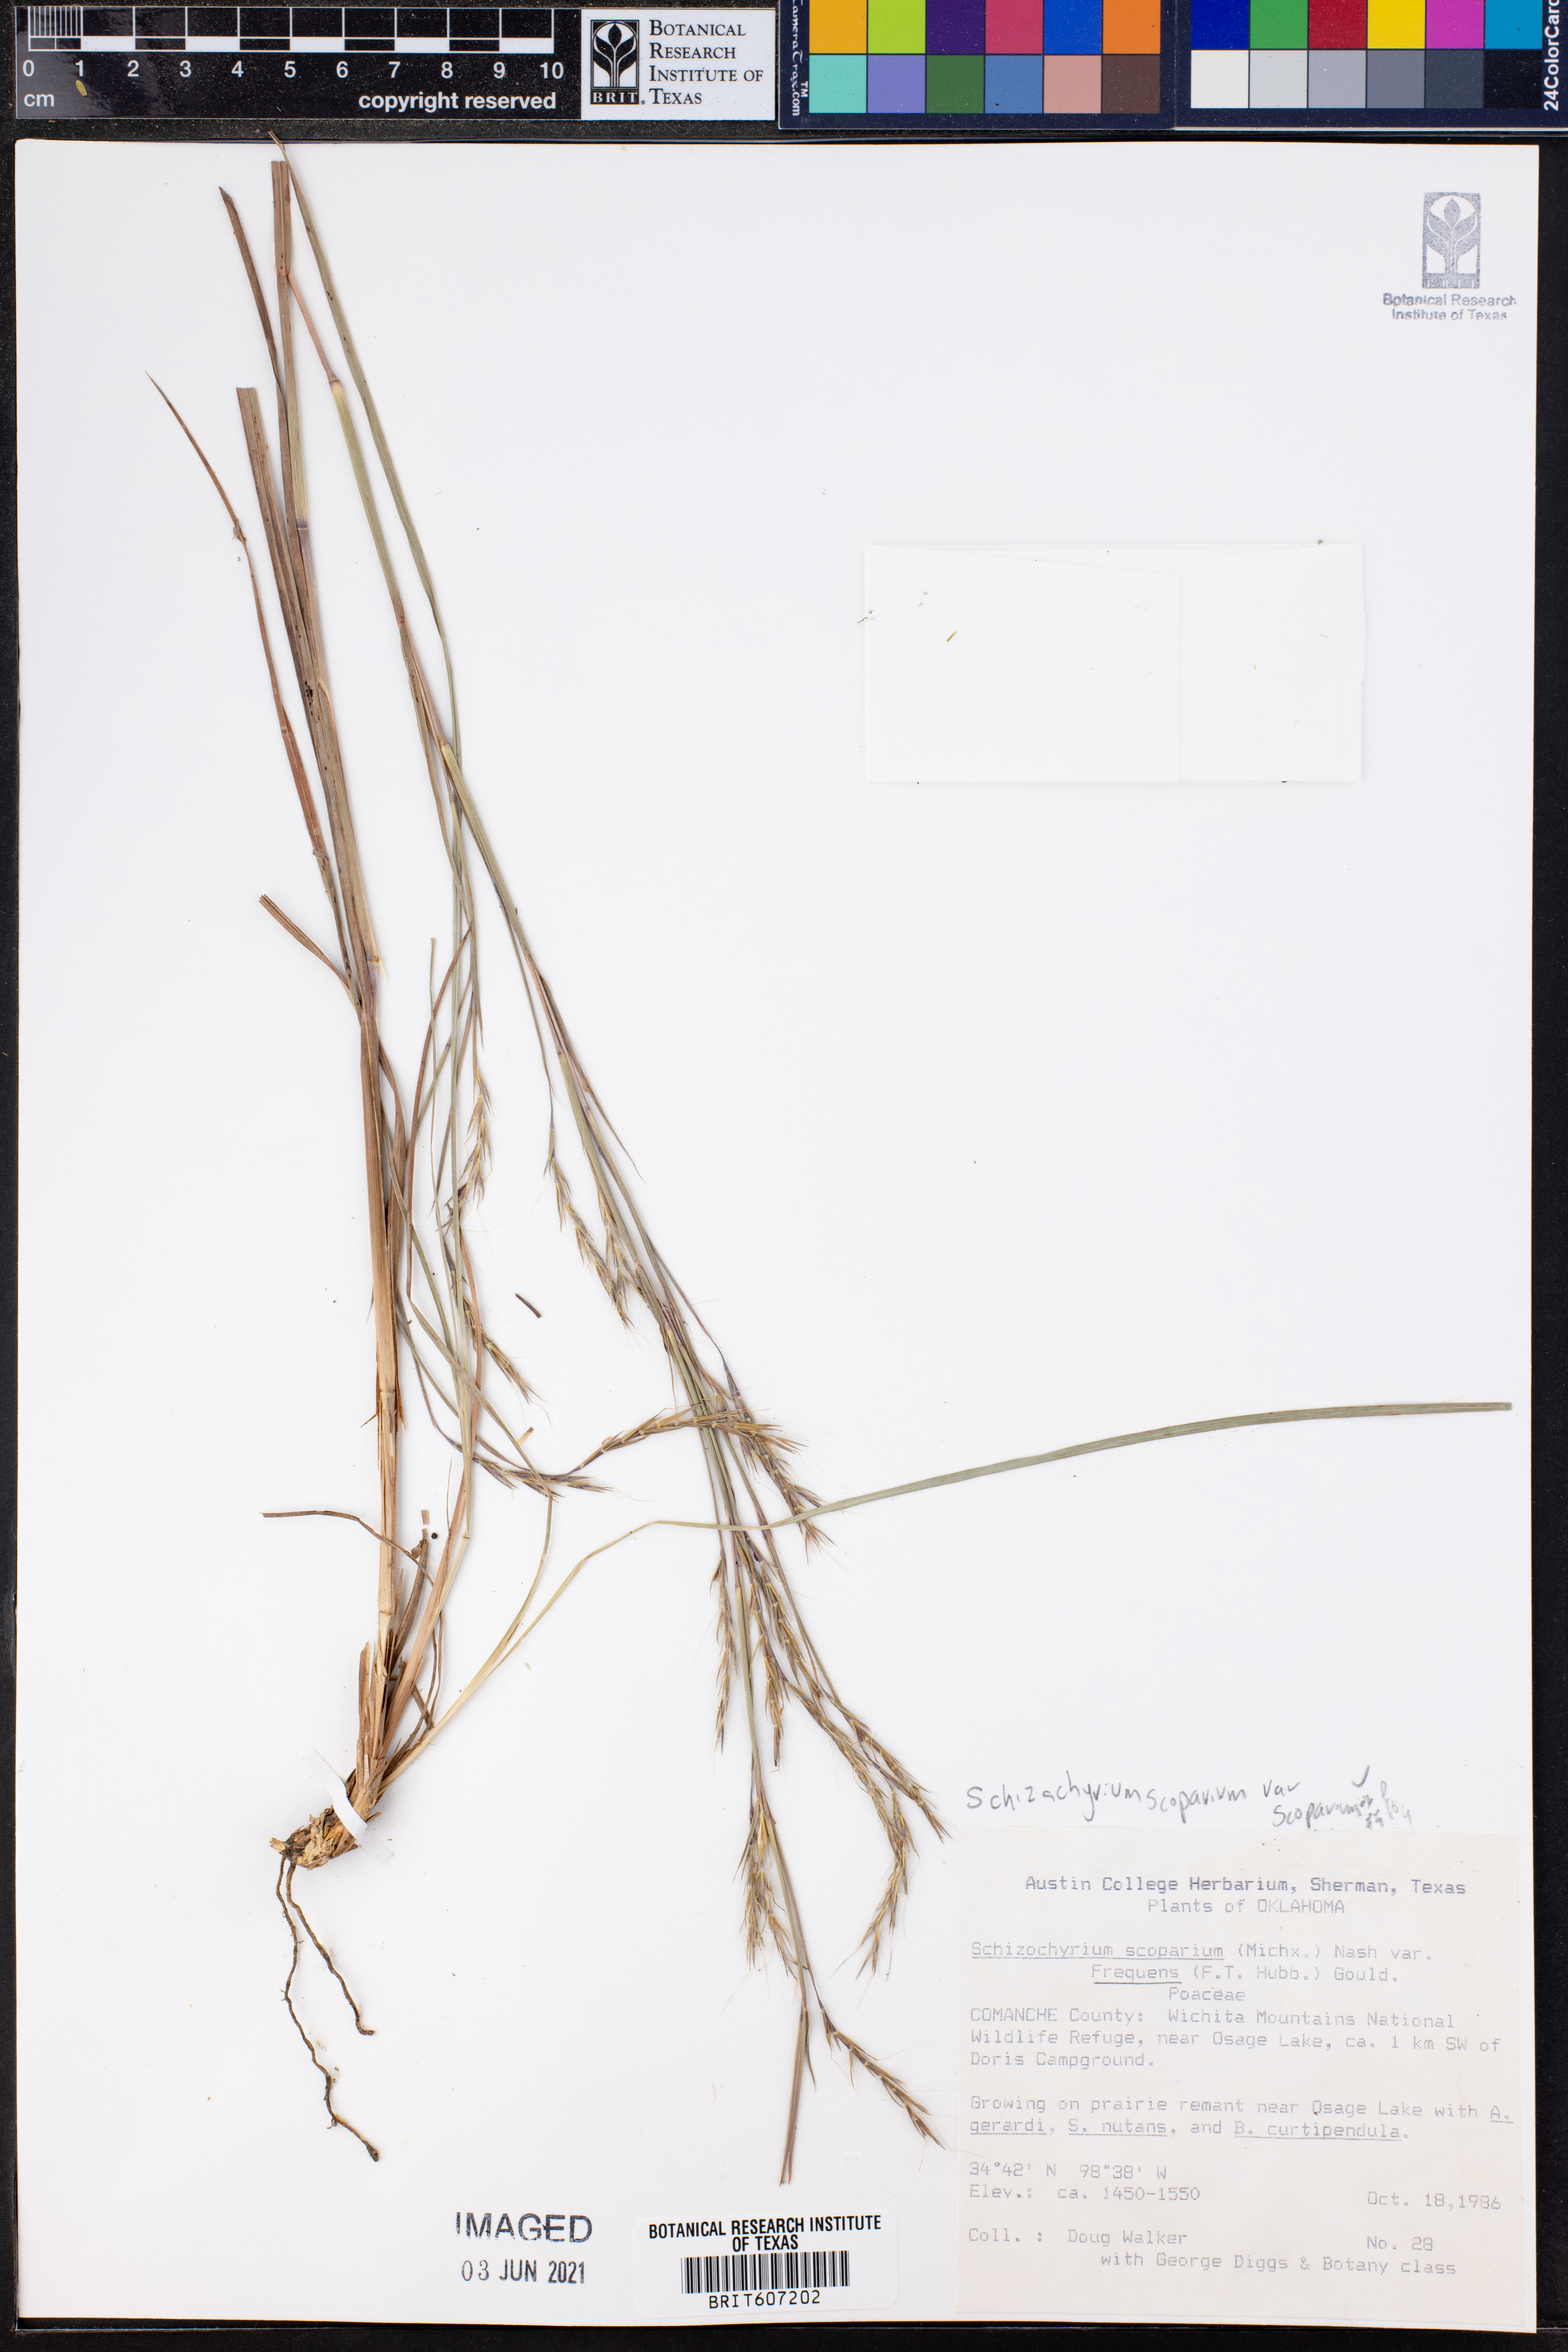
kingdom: Plantae
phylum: Tracheophyta
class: Liliopsida
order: Poales
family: Poaceae
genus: Schizachyrium
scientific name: Schizachyrium scoparium
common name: Little bluestem
